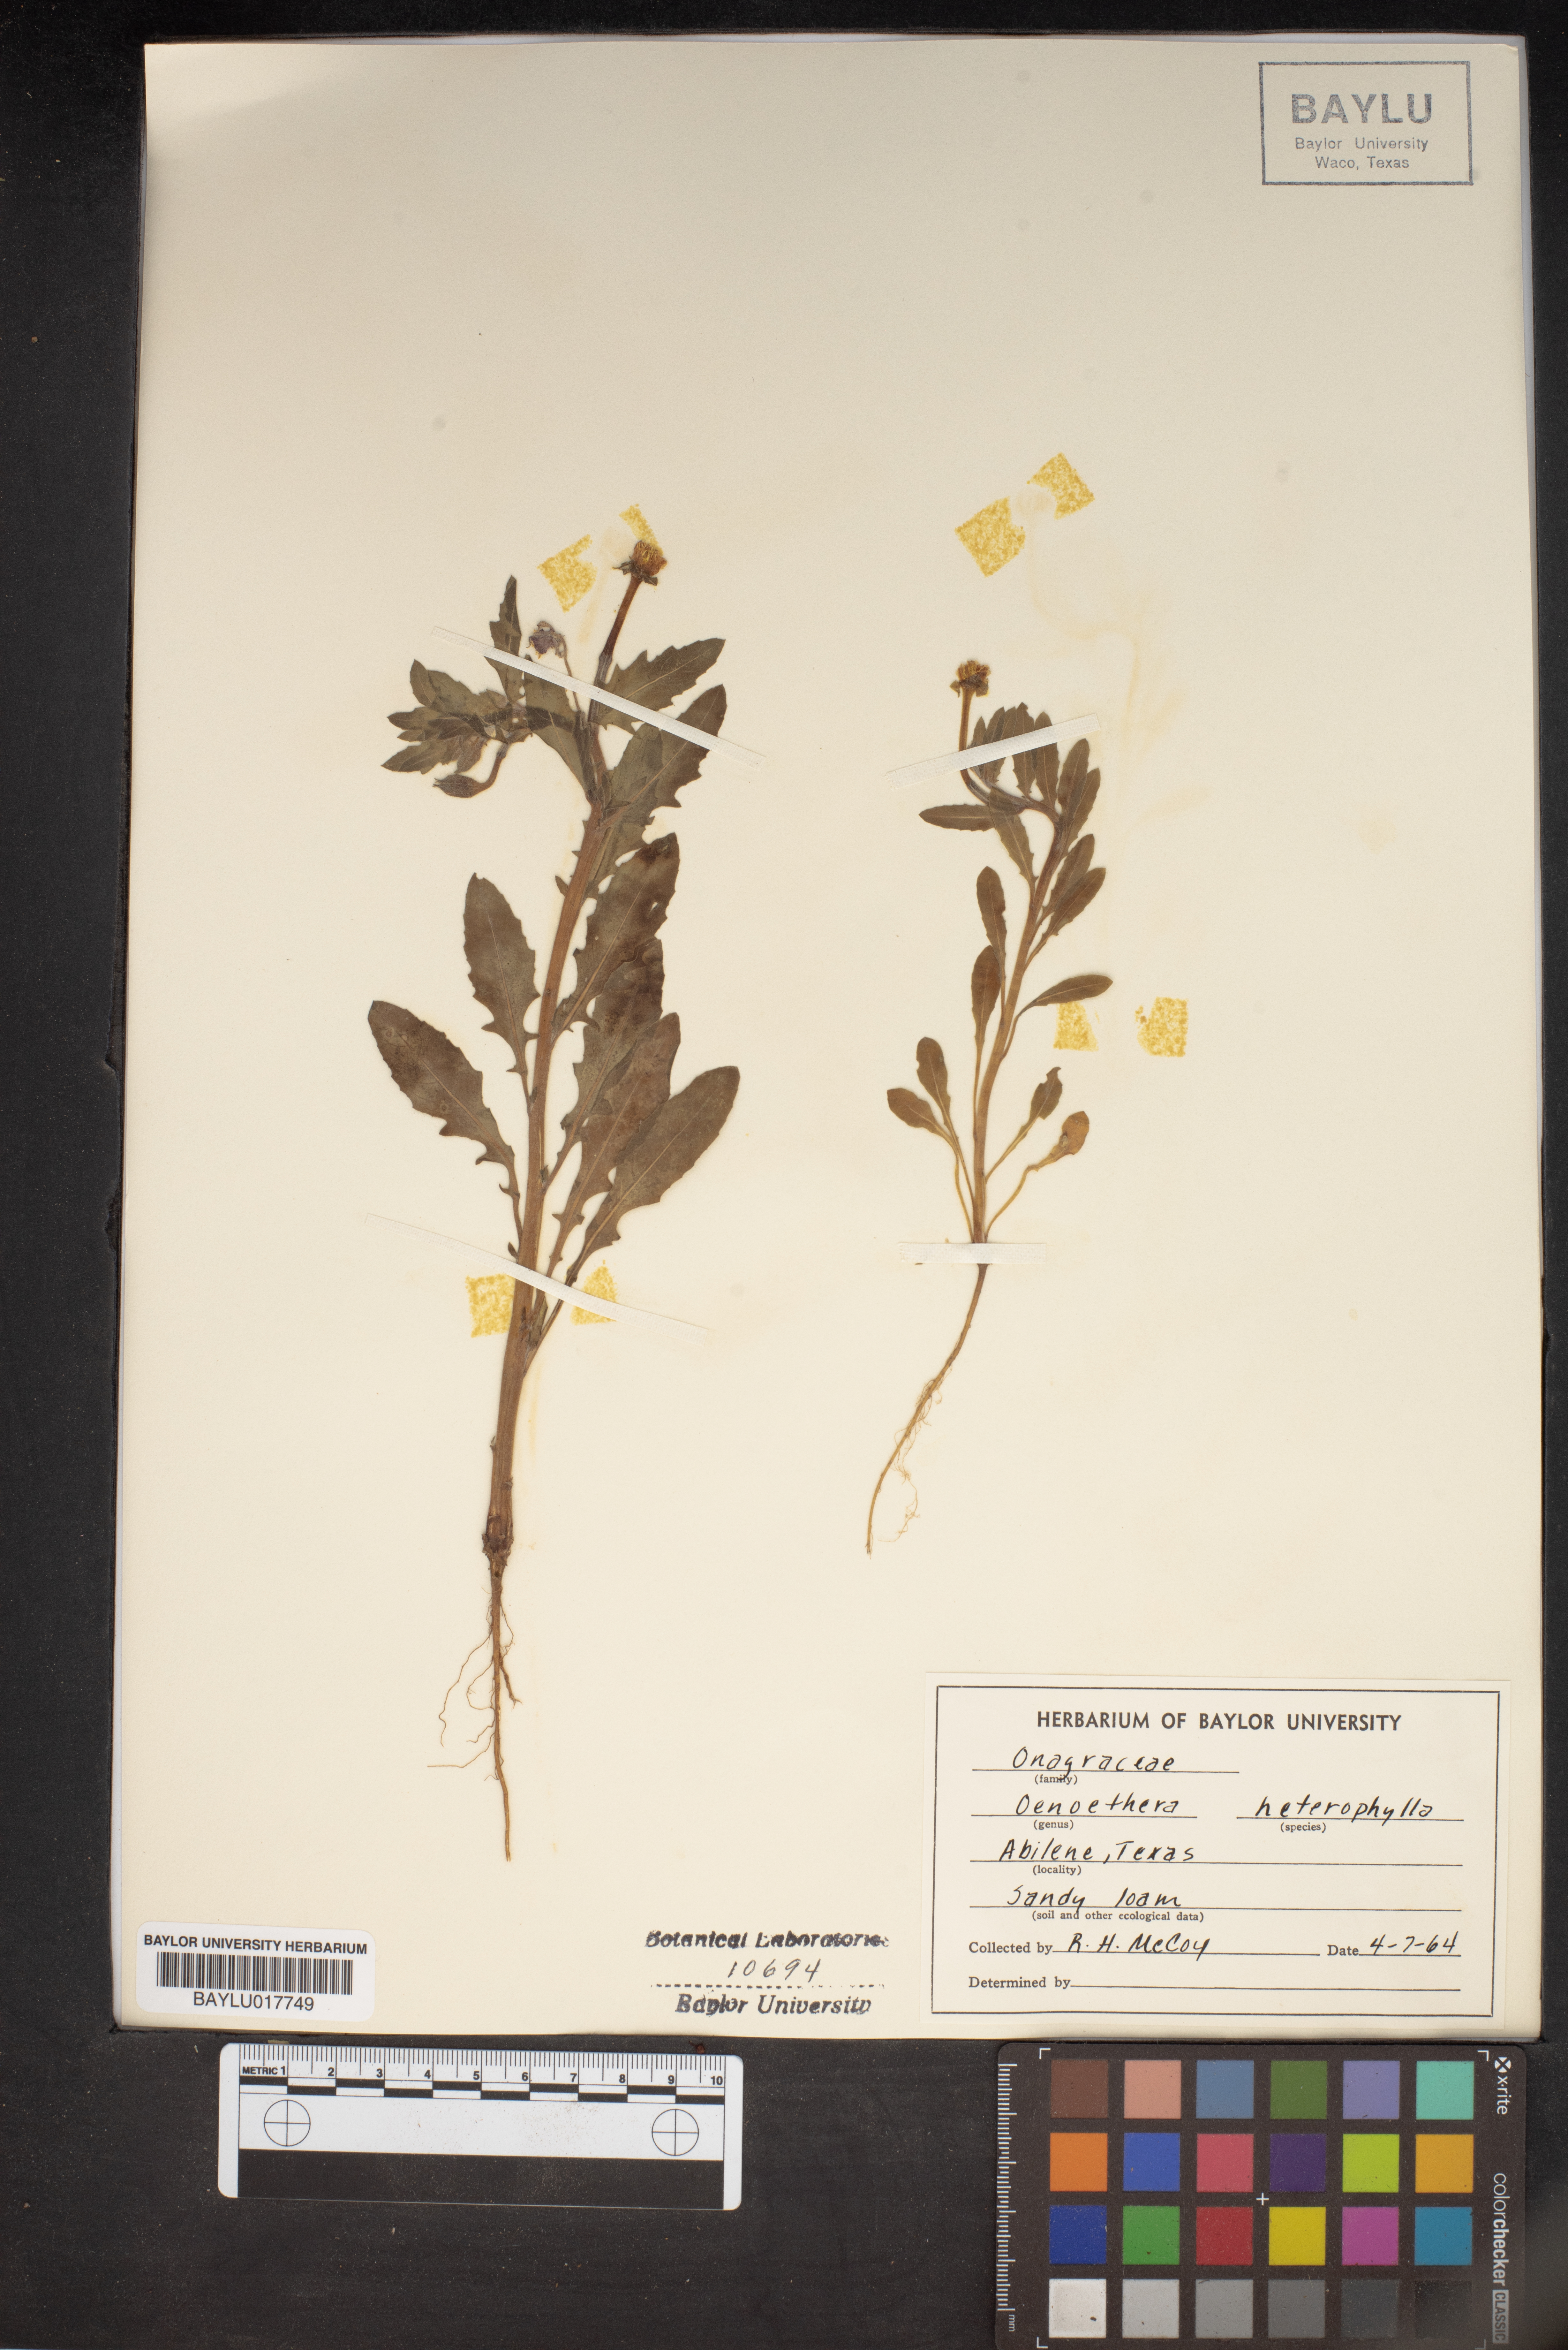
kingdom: Plantae
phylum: Tracheophyta
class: Magnoliopsida
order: Myrtales
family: Onagraceae
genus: Camissonia
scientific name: Camissonia dentata
